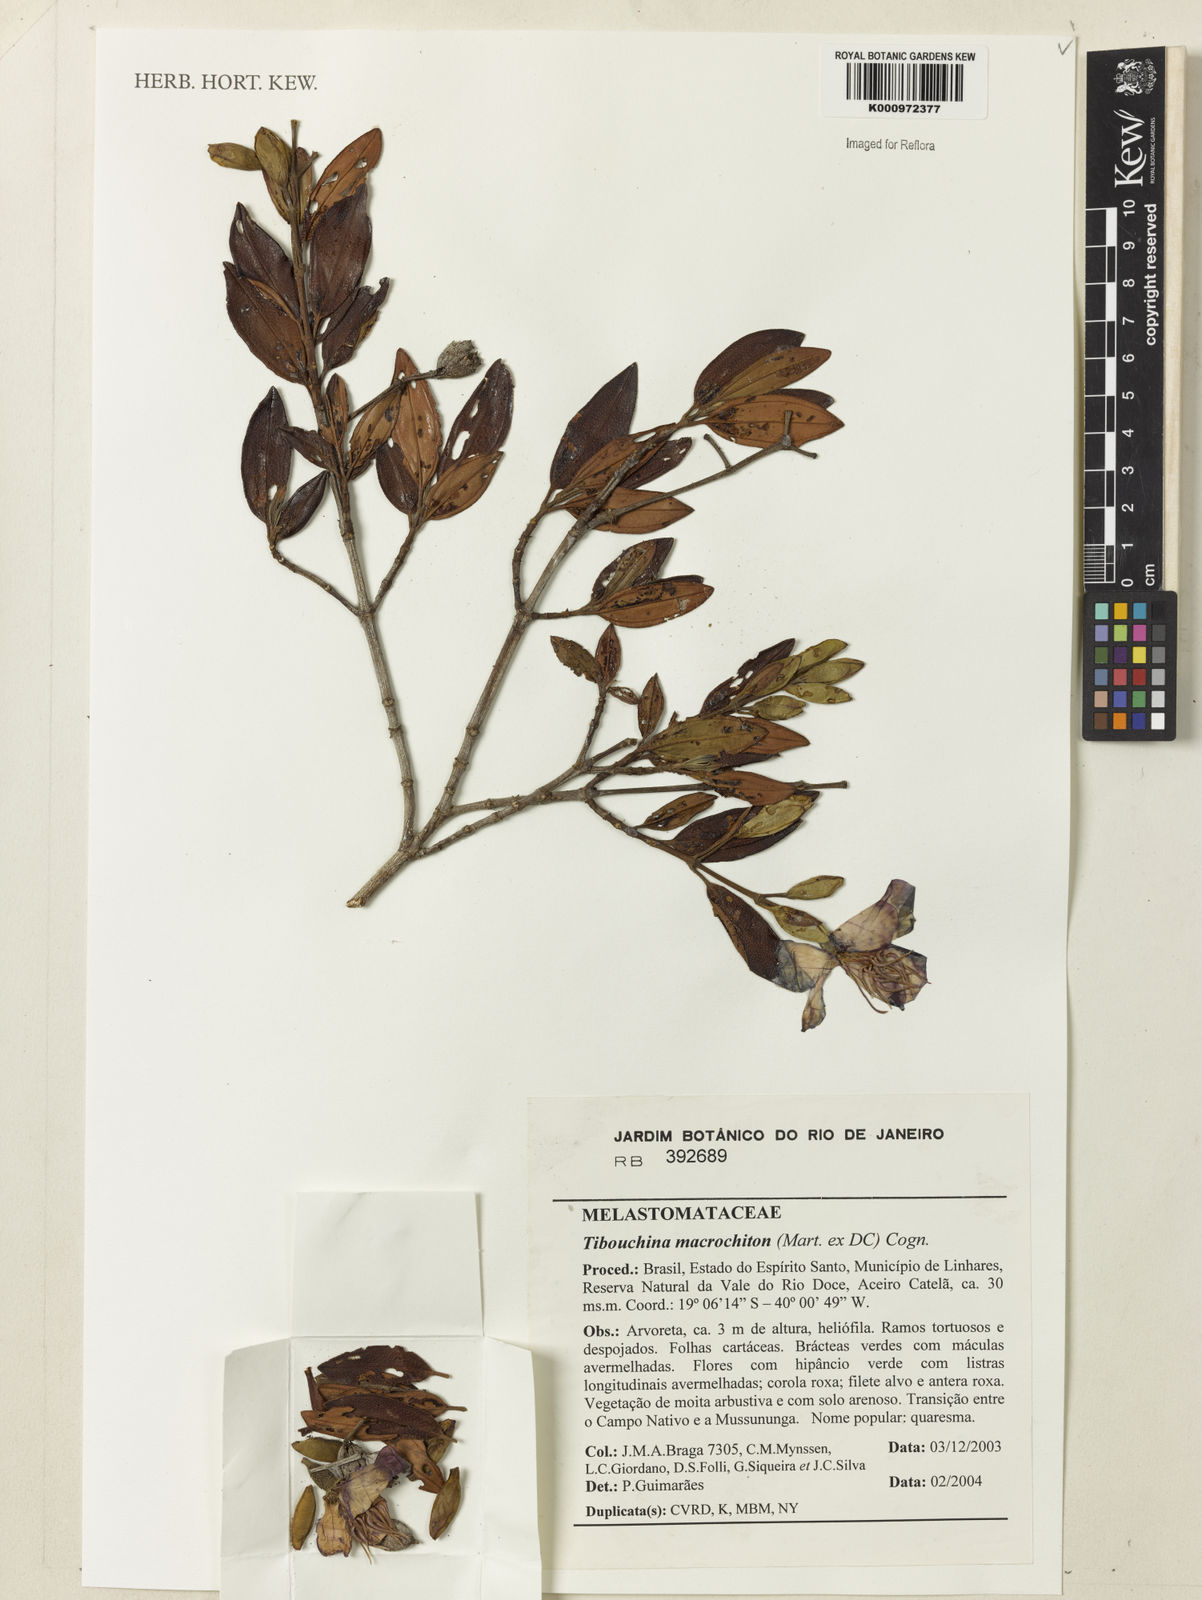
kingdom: Plantae
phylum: Tracheophyta
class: Magnoliopsida
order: Myrtales
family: Melastomataceae
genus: Pleroma
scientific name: Pleroma macrochiton
